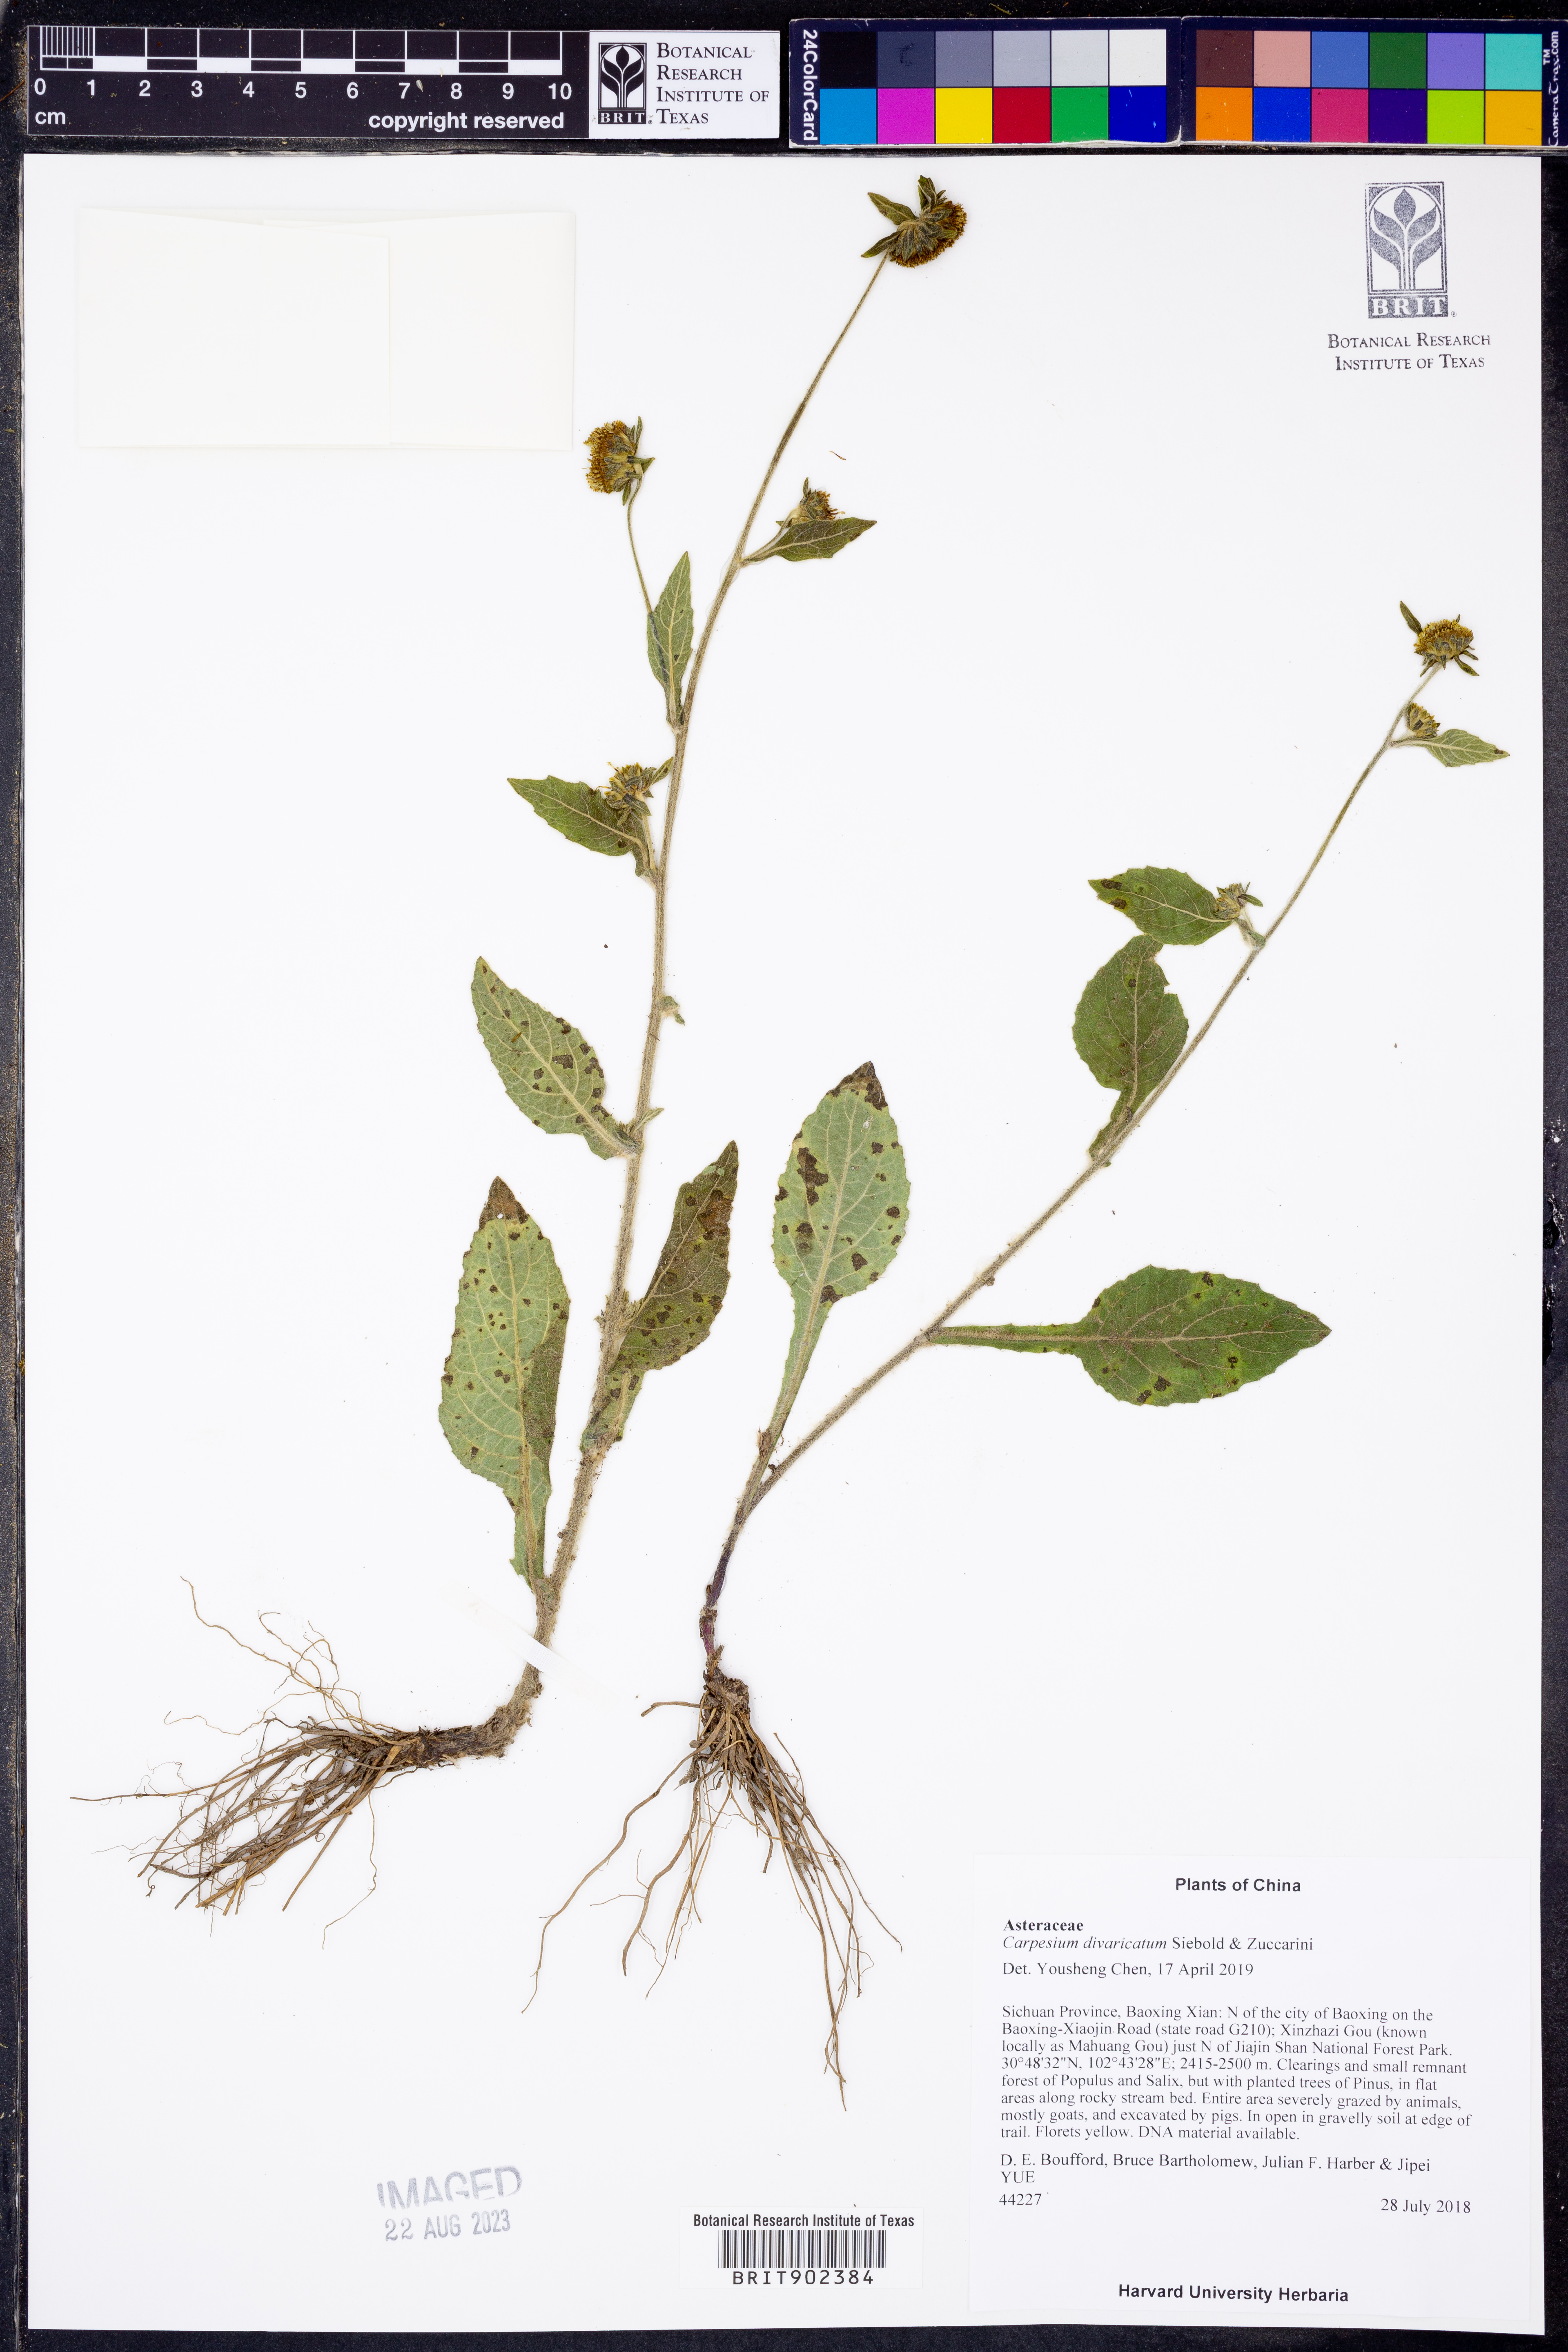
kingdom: Plantae
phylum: Tracheophyta
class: Magnoliopsida
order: Asterales
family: Asteraceae
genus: Carpesium
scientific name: Carpesium divaricatum
